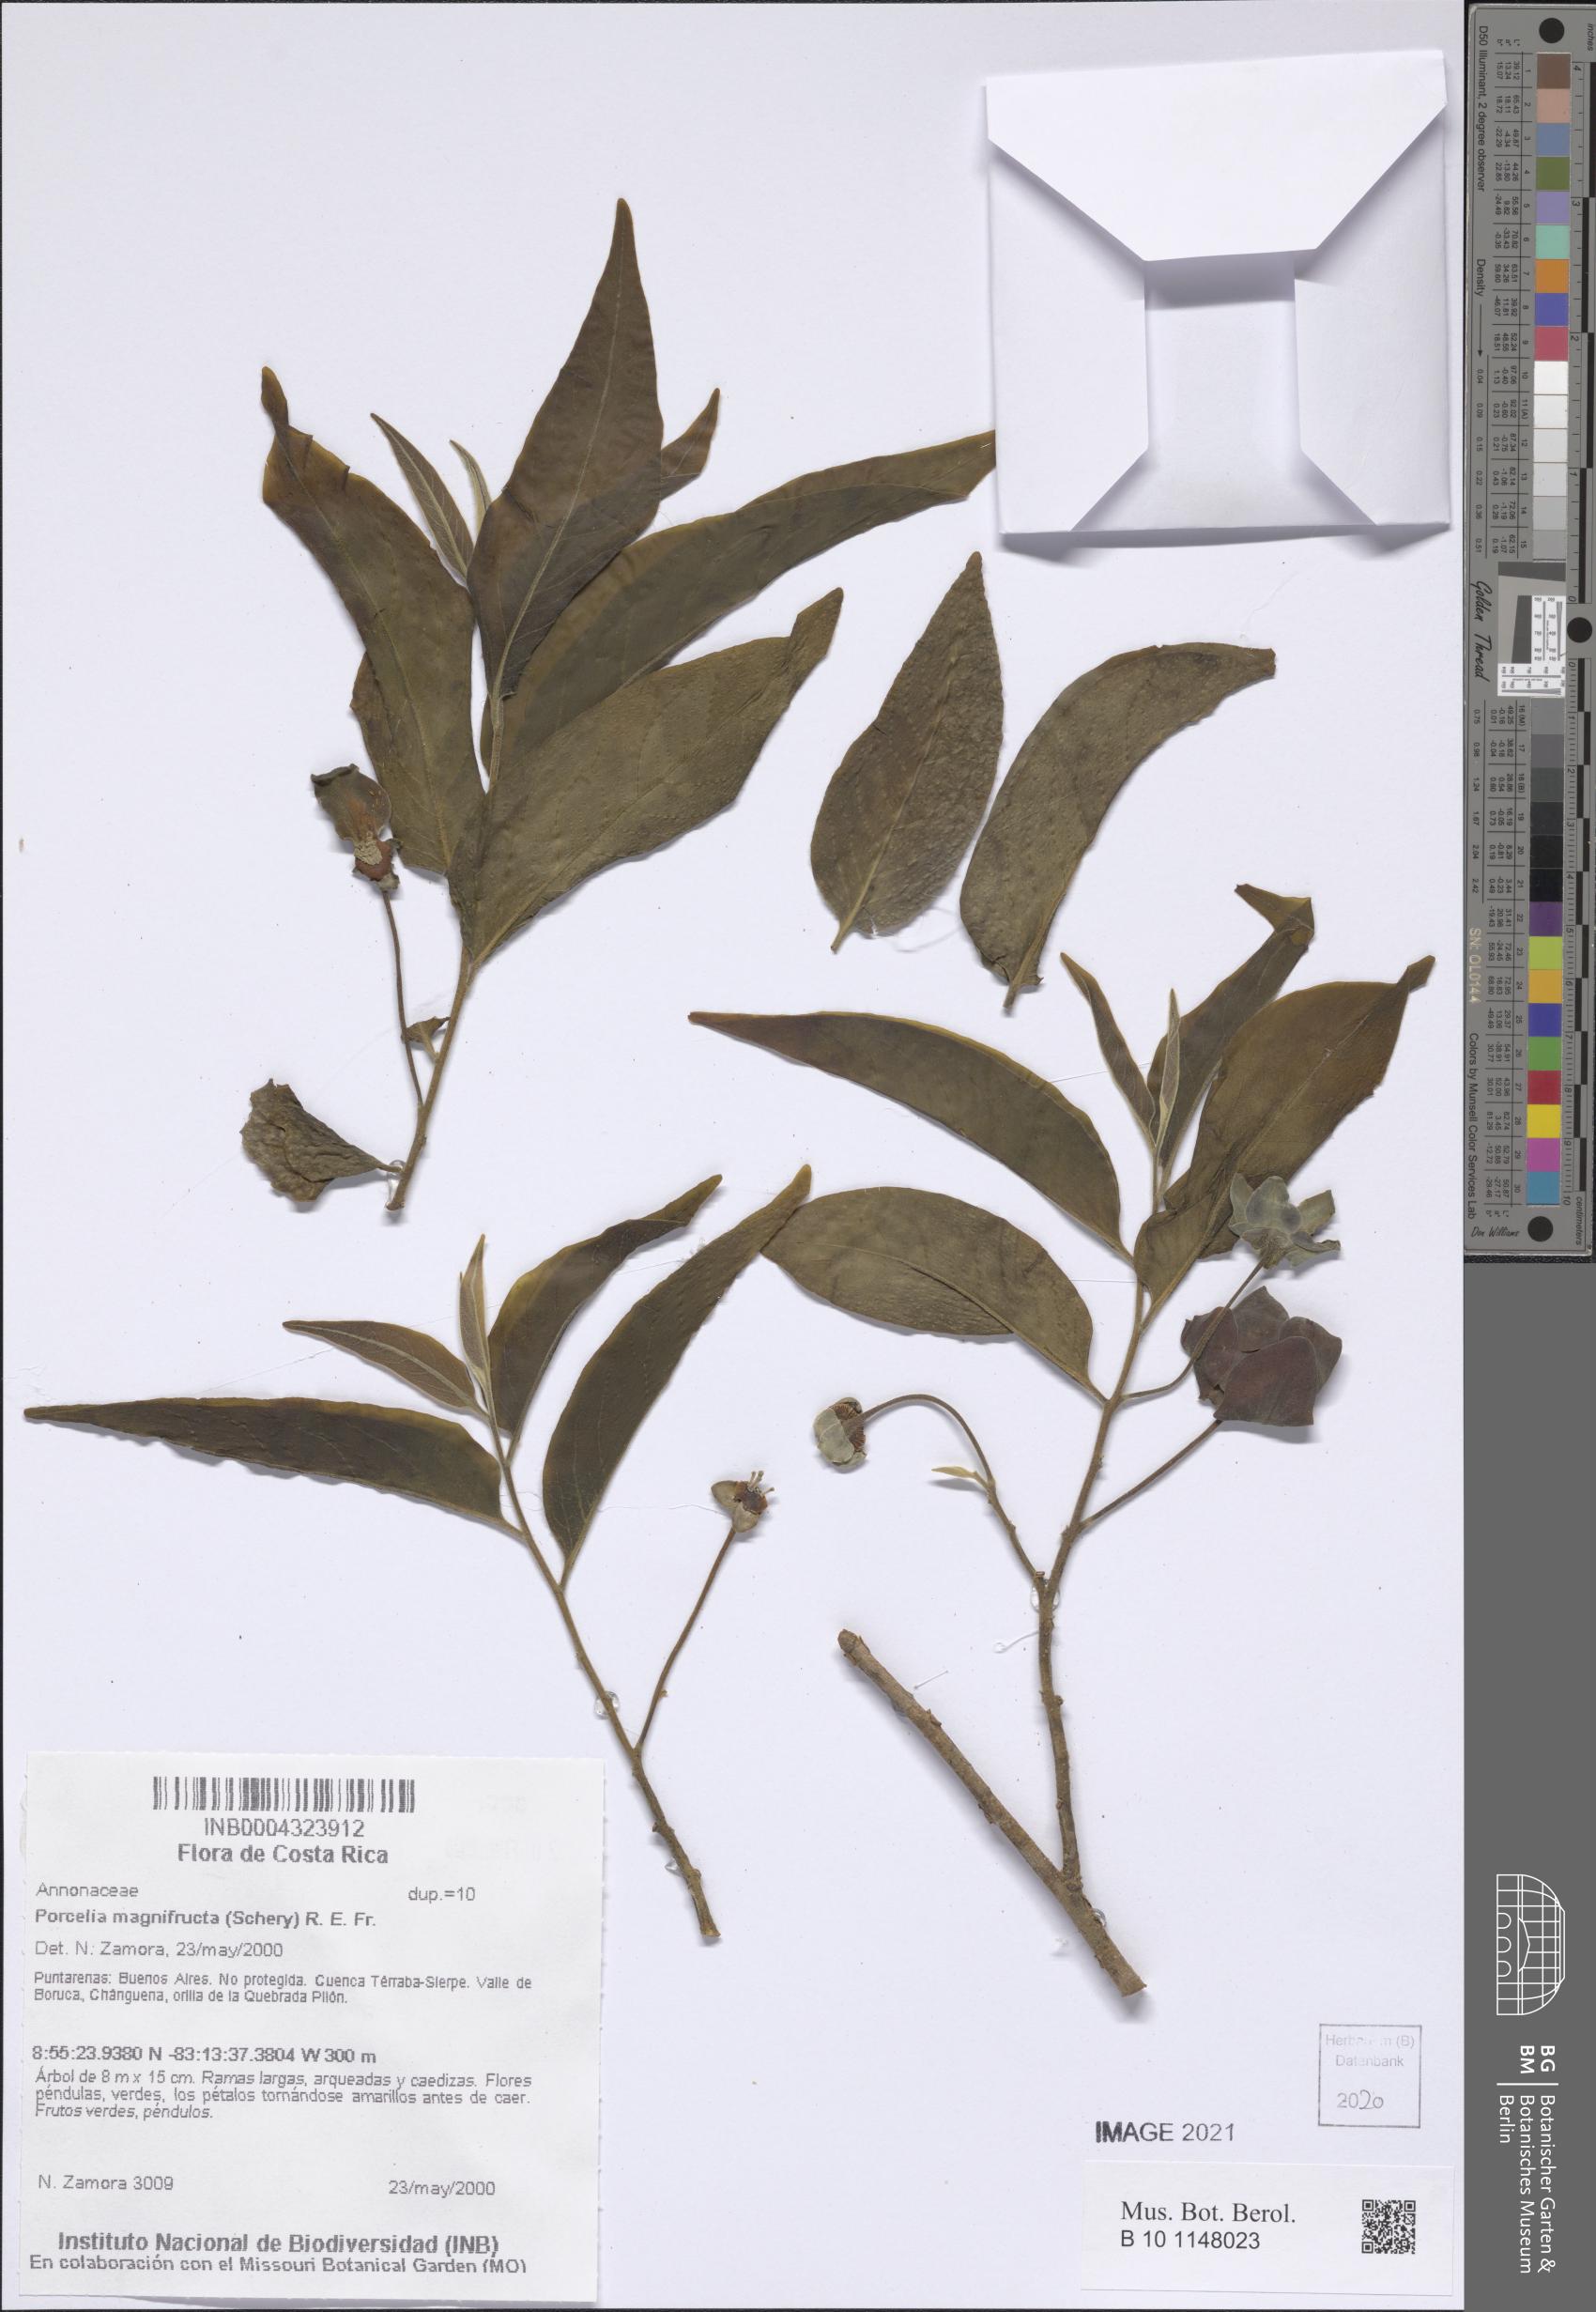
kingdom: Plantae
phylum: Tracheophyta
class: Magnoliopsida
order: Magnoliales
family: Annonaceae
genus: Porcelia
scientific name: Porcelia magnifructa
